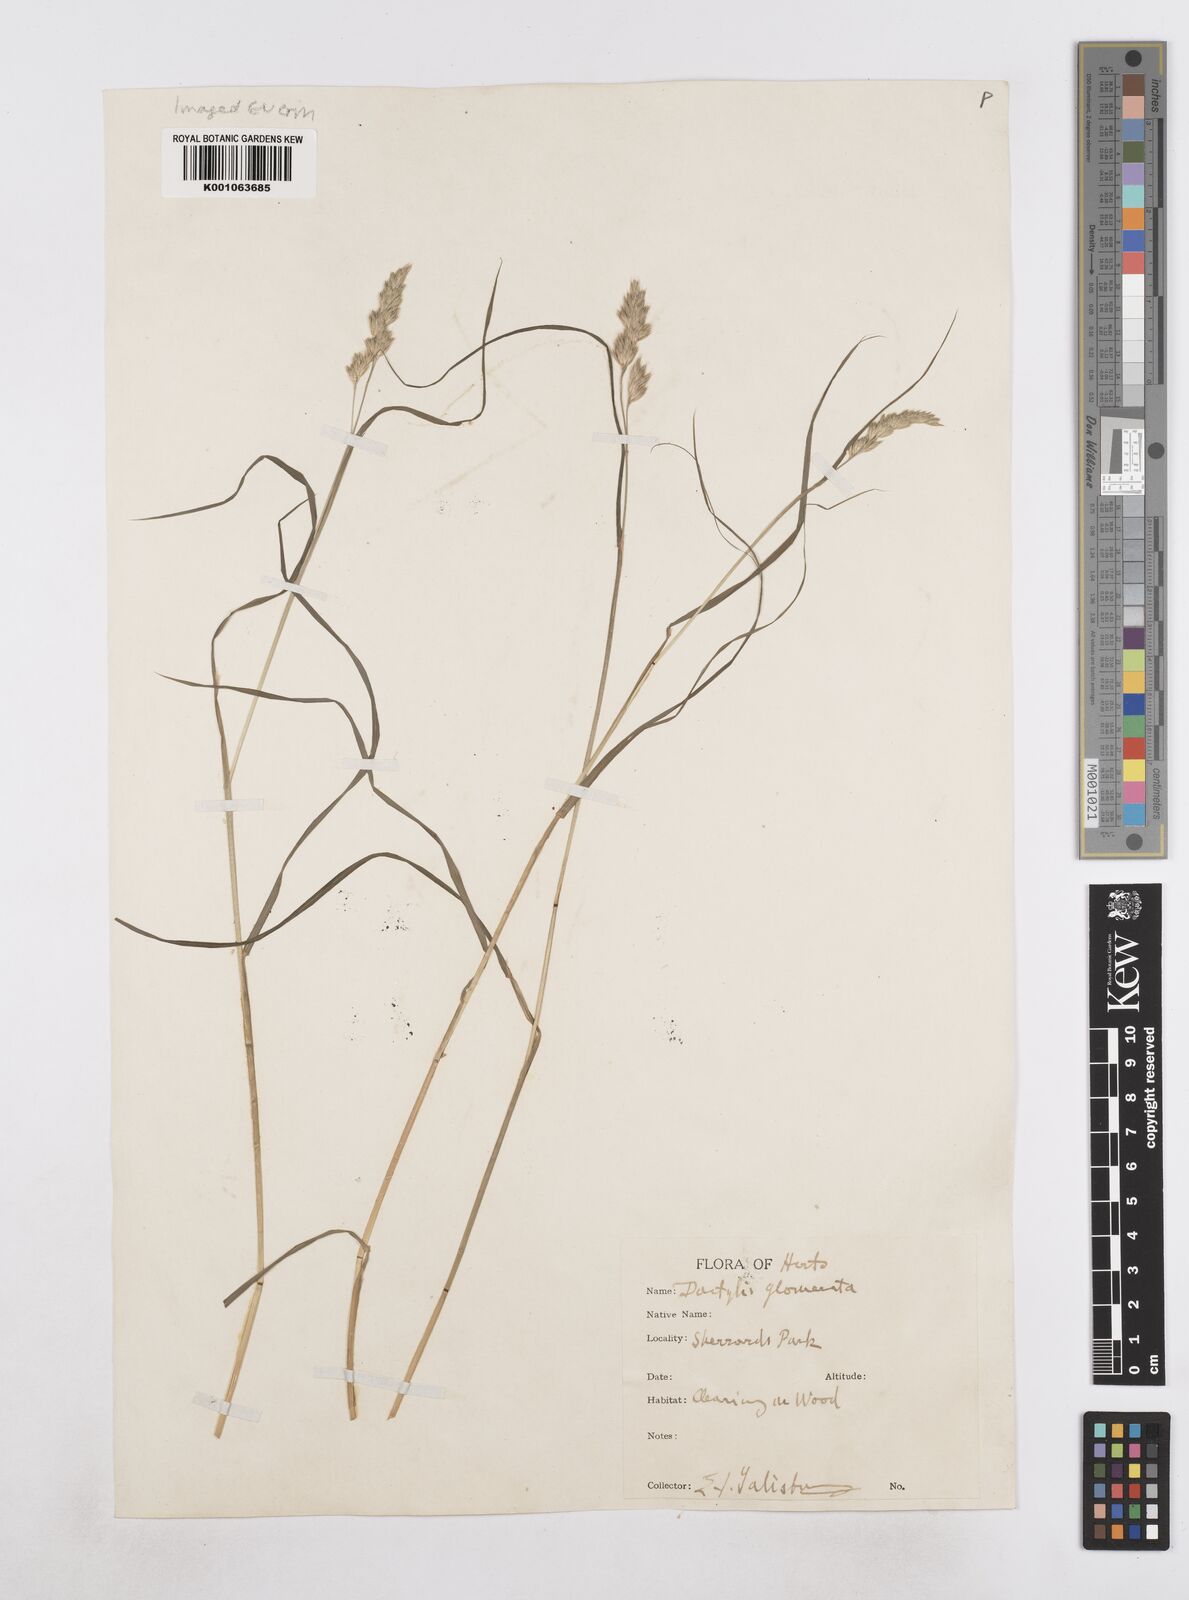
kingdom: Plantae
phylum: Tracheophyta
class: Liliopsida
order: Poales
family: Poaceae
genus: Dactylis
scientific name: Dactylis glomerata
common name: Orchardgrass
